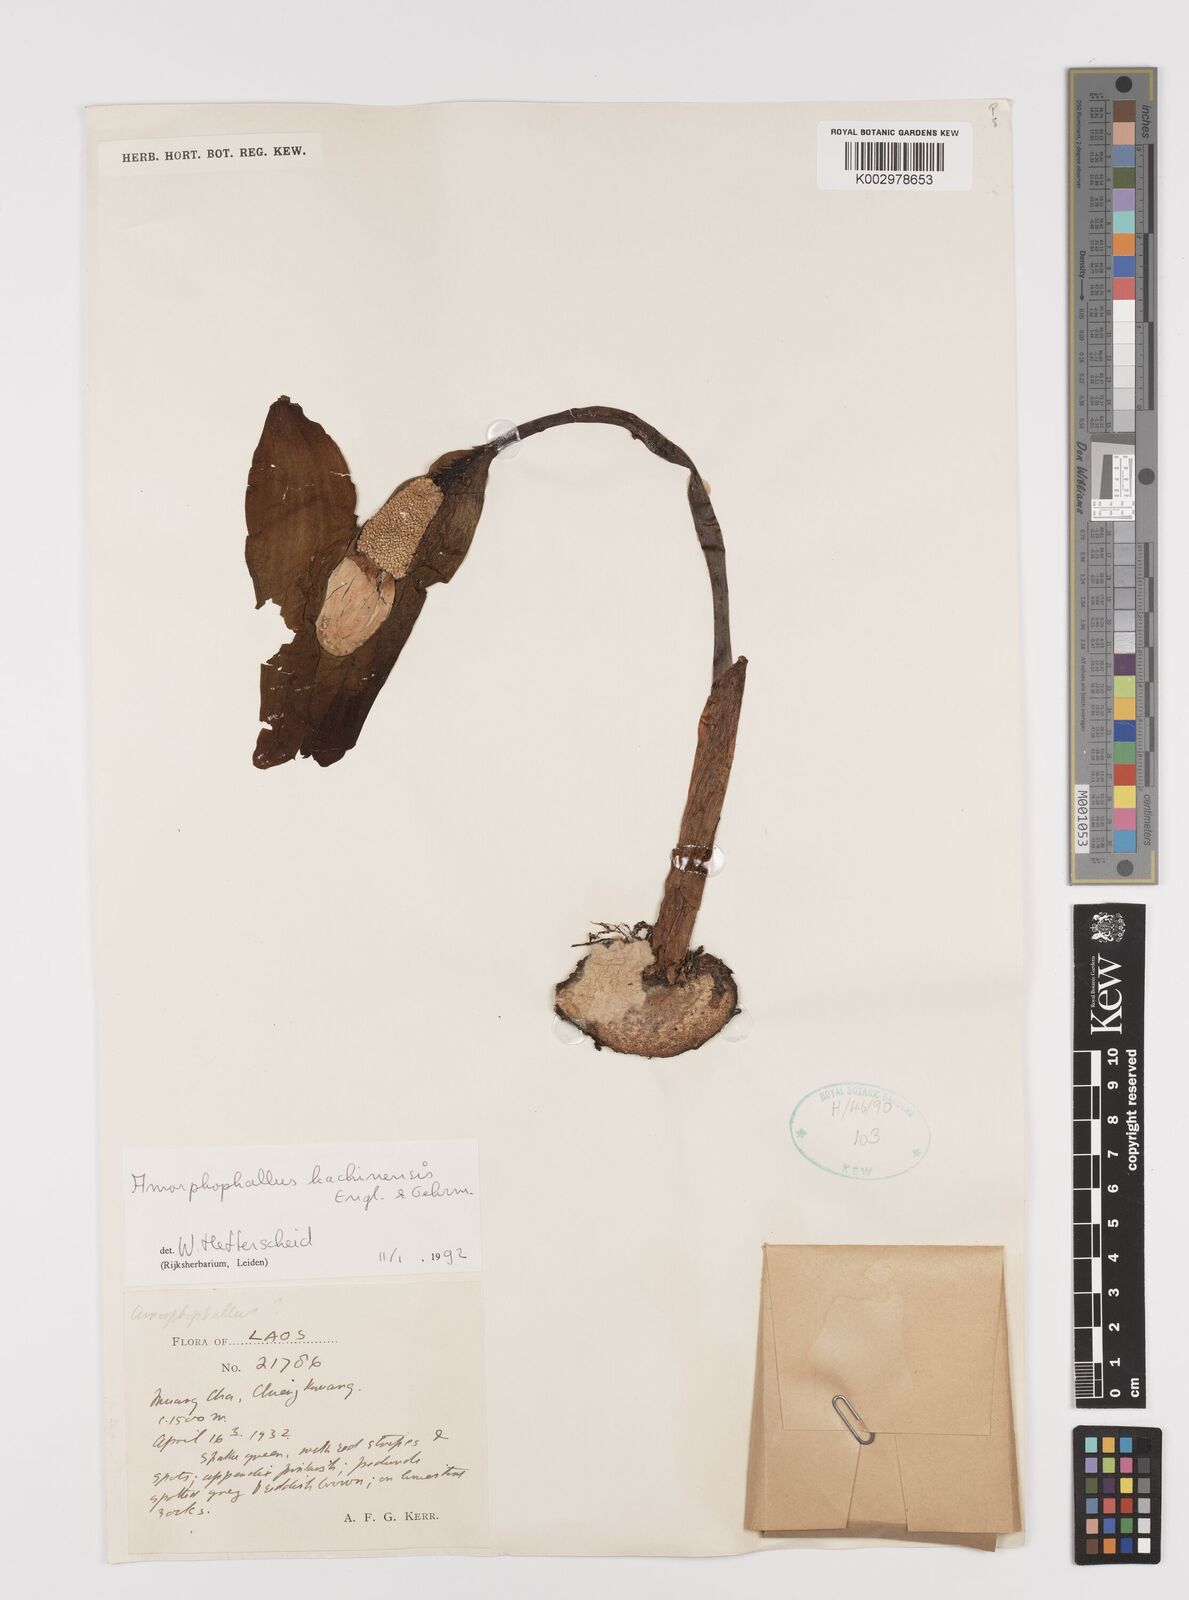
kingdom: Plantae
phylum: Tracheophyta
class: Liliopsida
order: Alismatales
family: Araceae
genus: Amorphophallus
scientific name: Amorphophallus kachinensis
